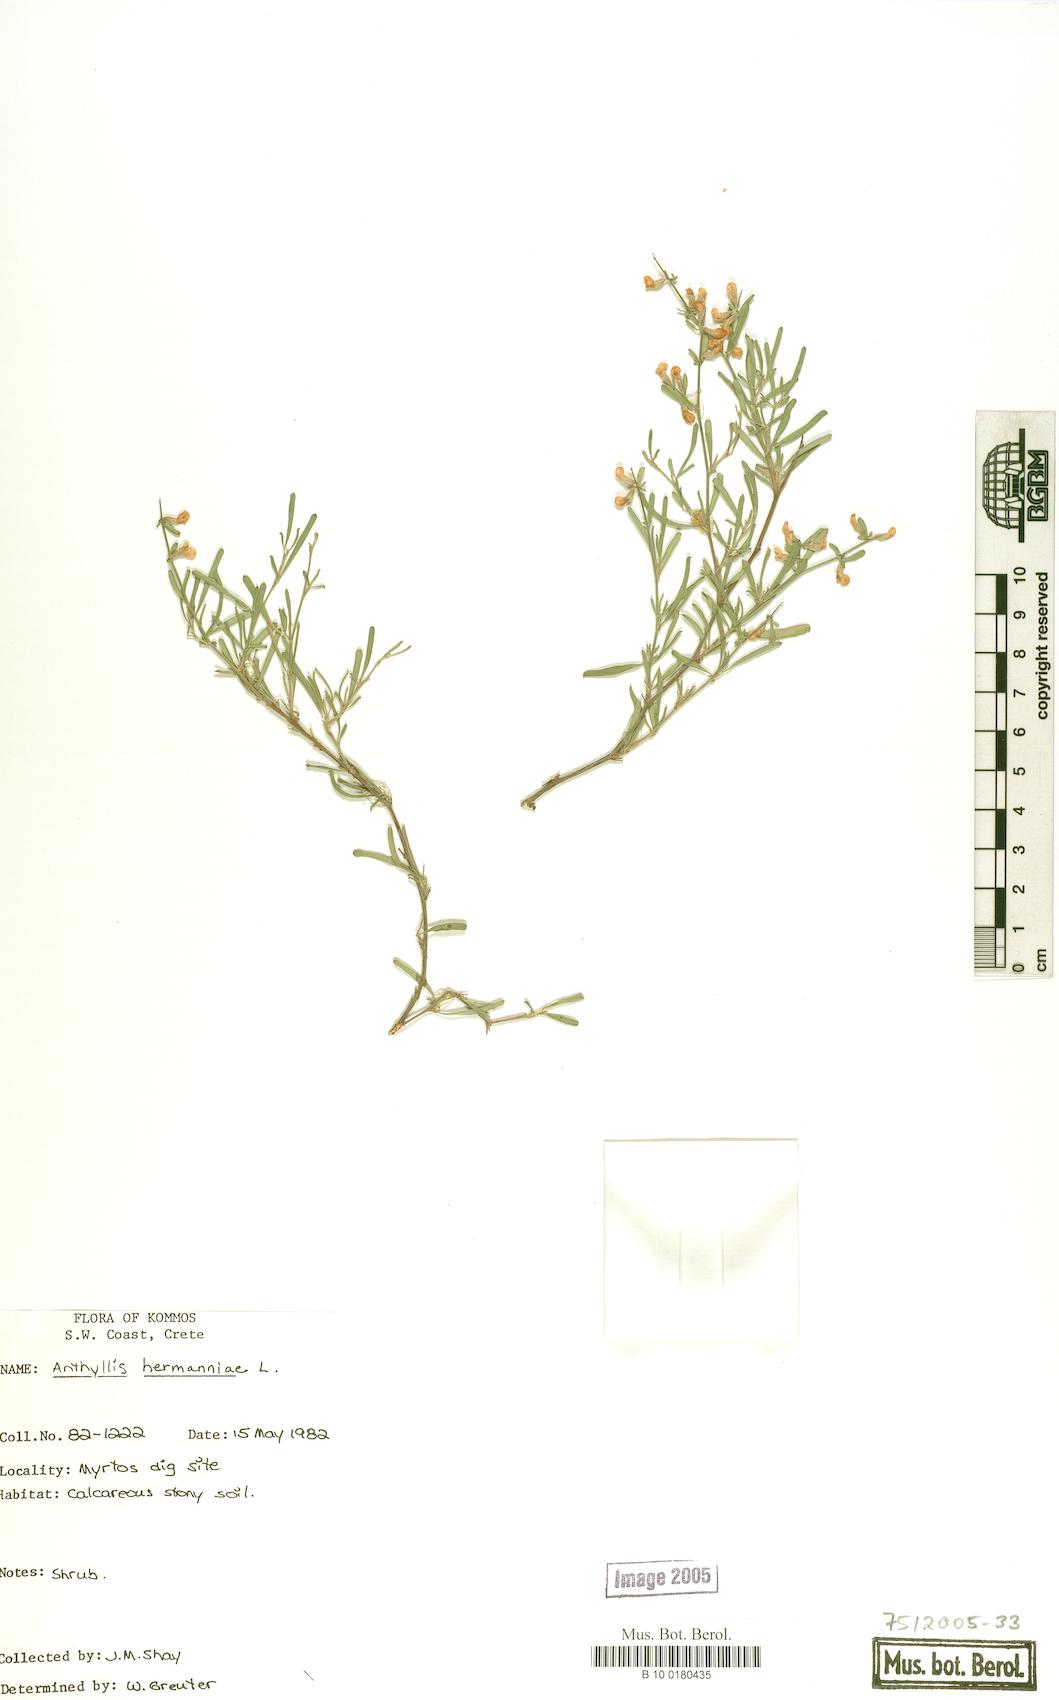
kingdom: Plantae
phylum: Tracheophyta
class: Magnoliopsida
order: Fabales
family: Fabaceae
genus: Anthyllis
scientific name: Anthyllis hermanniae
